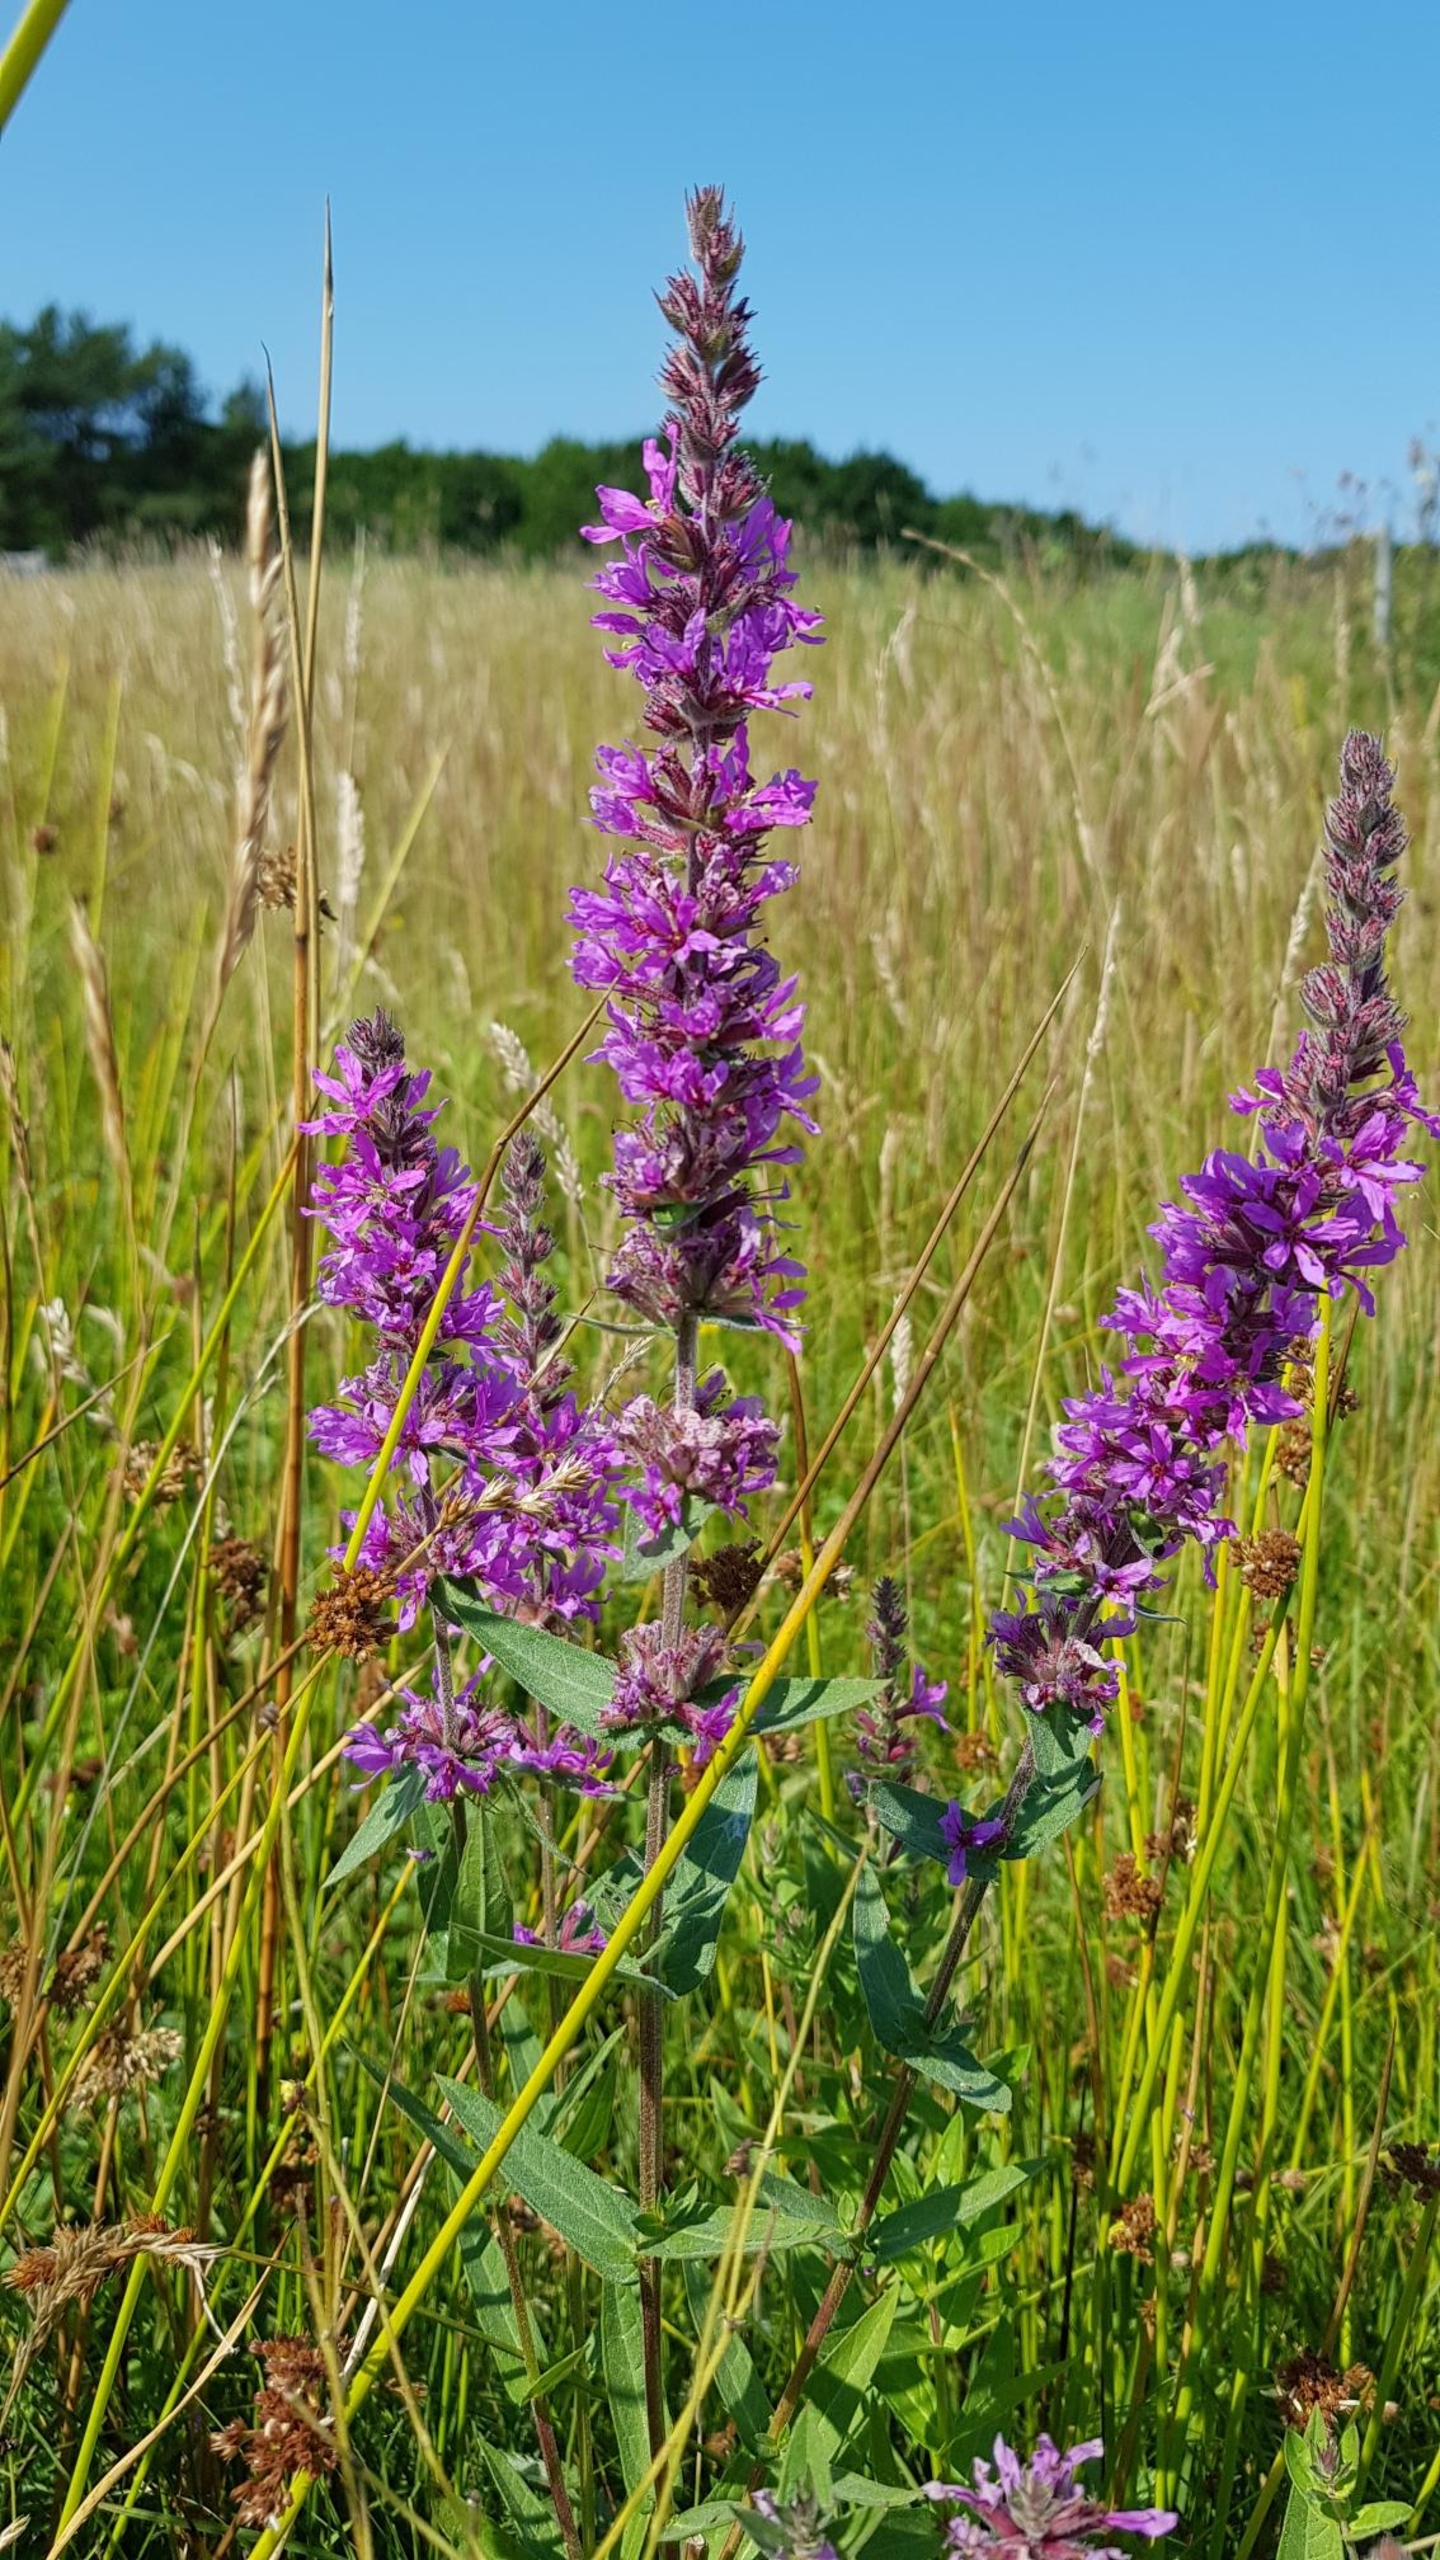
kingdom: Plantae
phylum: Tracheophyta
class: Magnoliopsida
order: Myrtales
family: Lythraceae
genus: Lythrum
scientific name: Lythrum salicaria
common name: Kattehale
